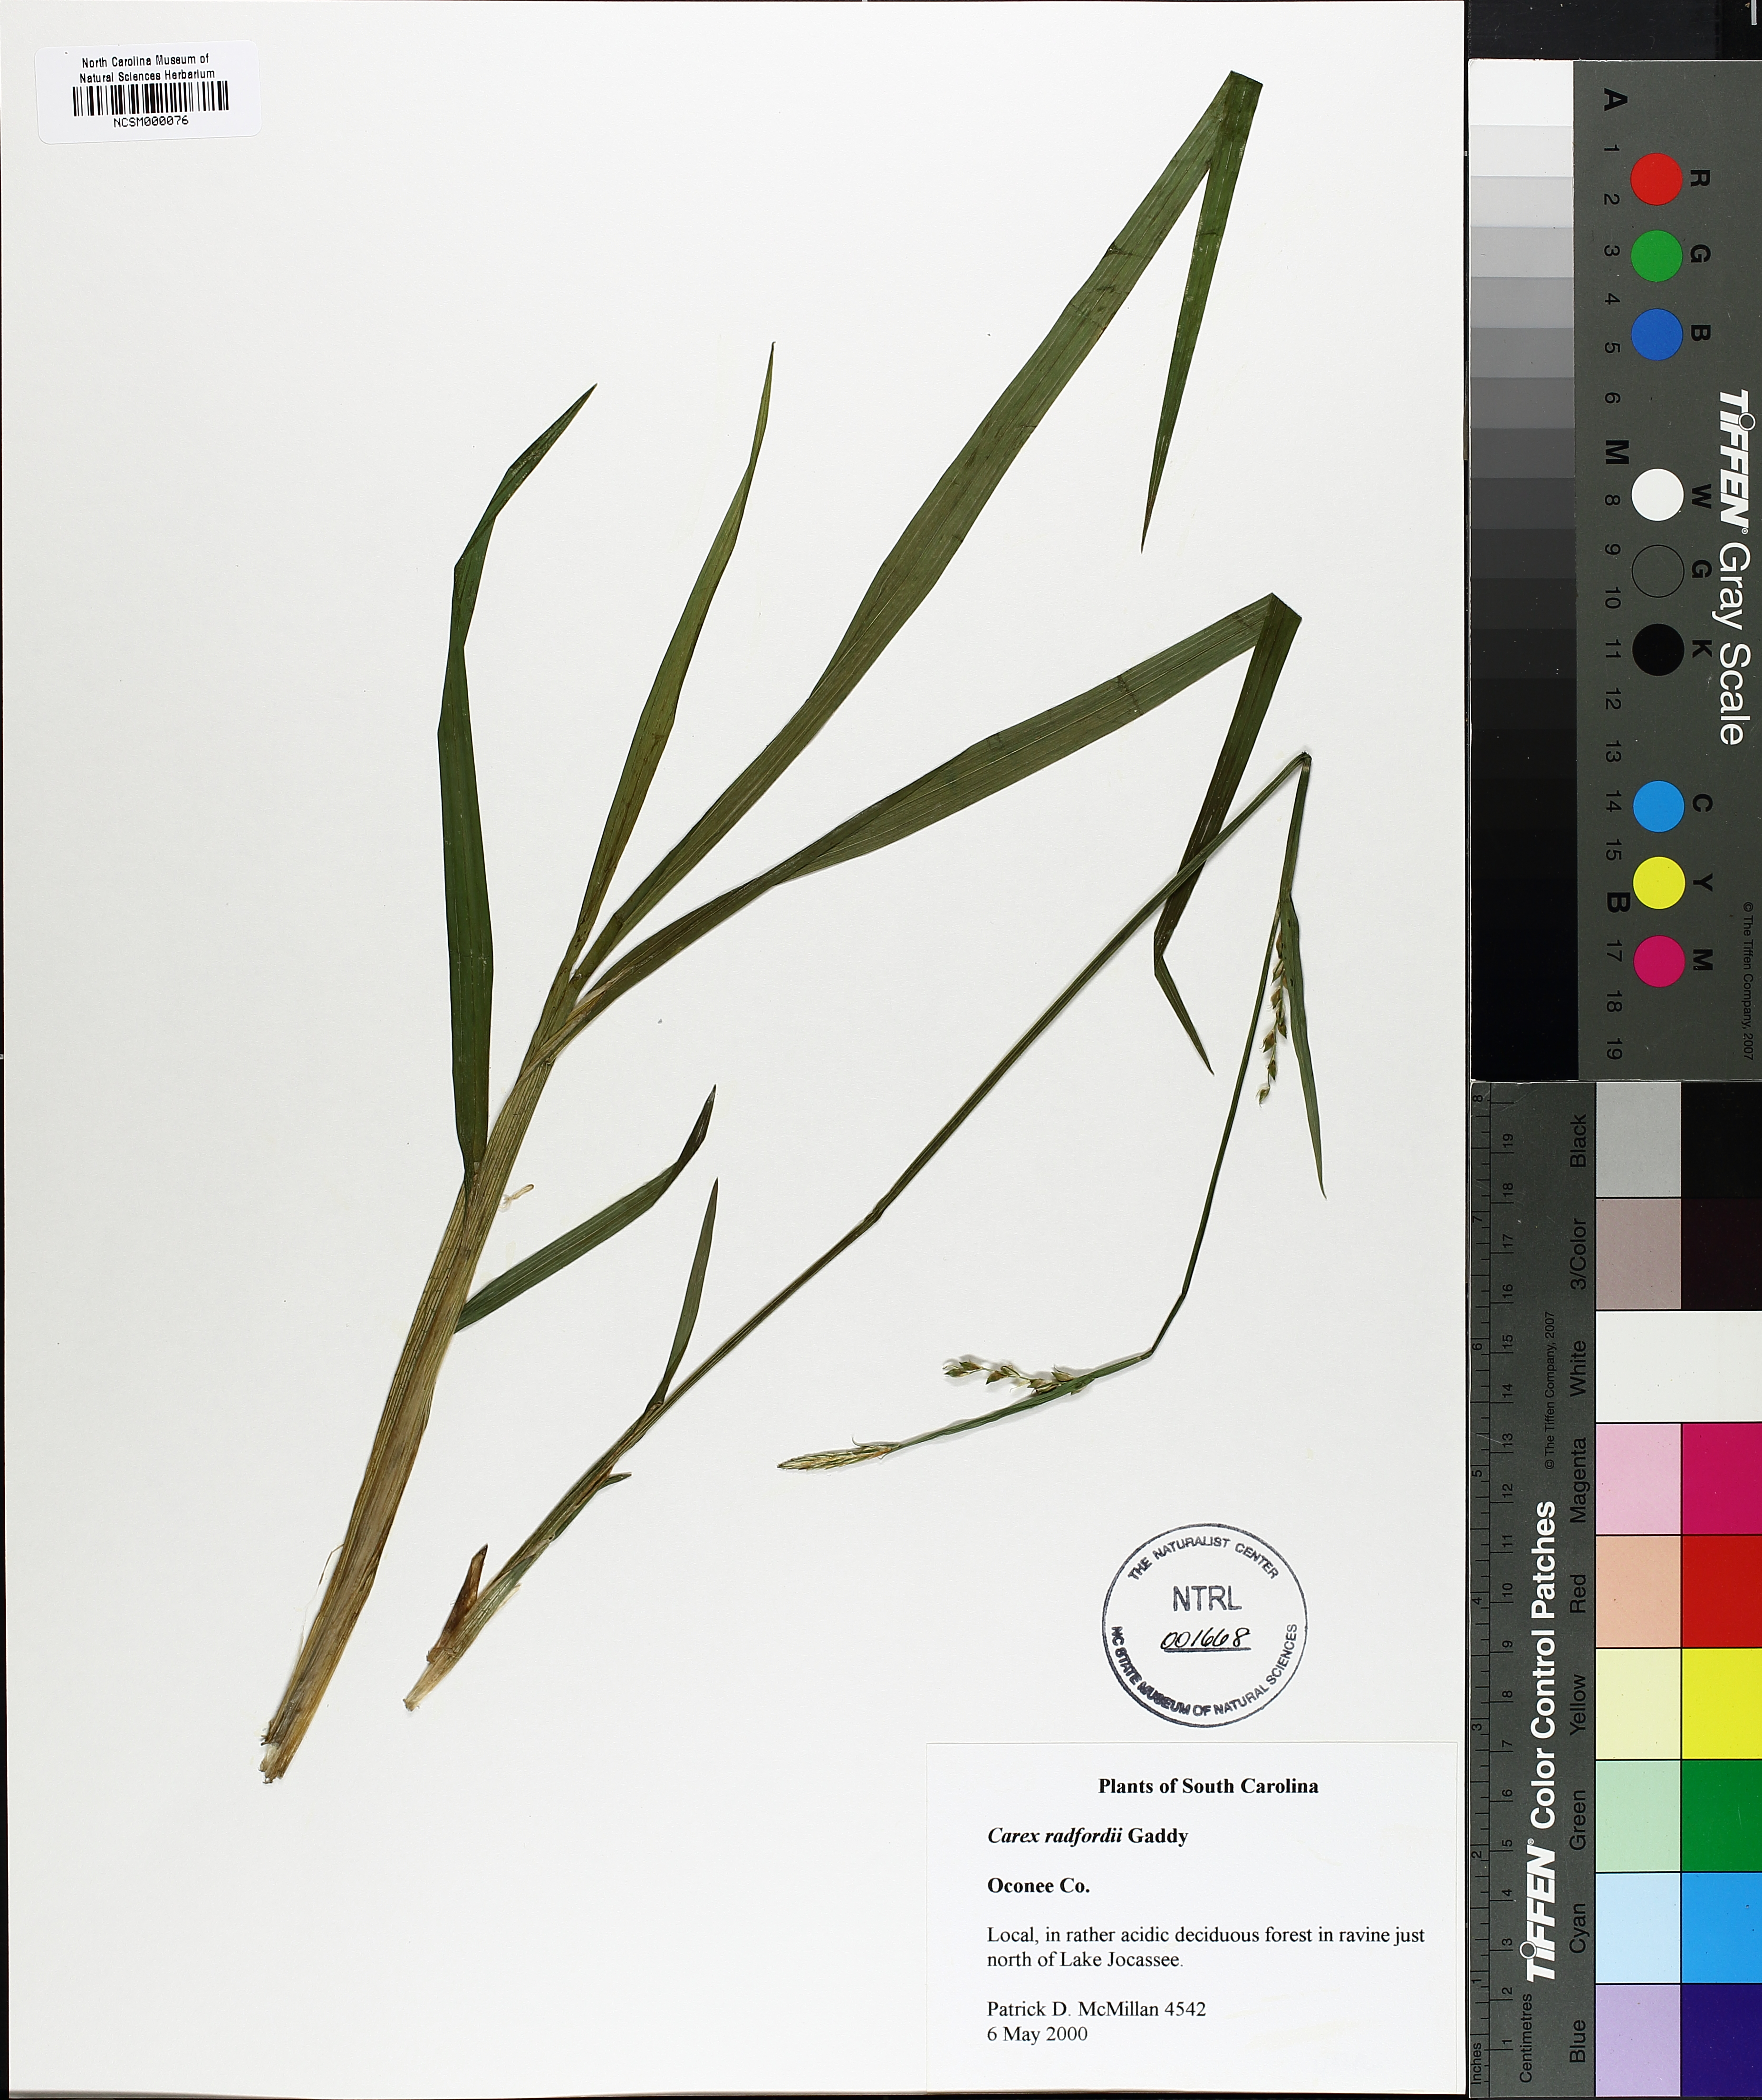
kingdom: Plantae
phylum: Tracheophyta
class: Liliopsida
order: Poales
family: Cyperaceae
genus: Carex
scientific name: Carex radfordii
